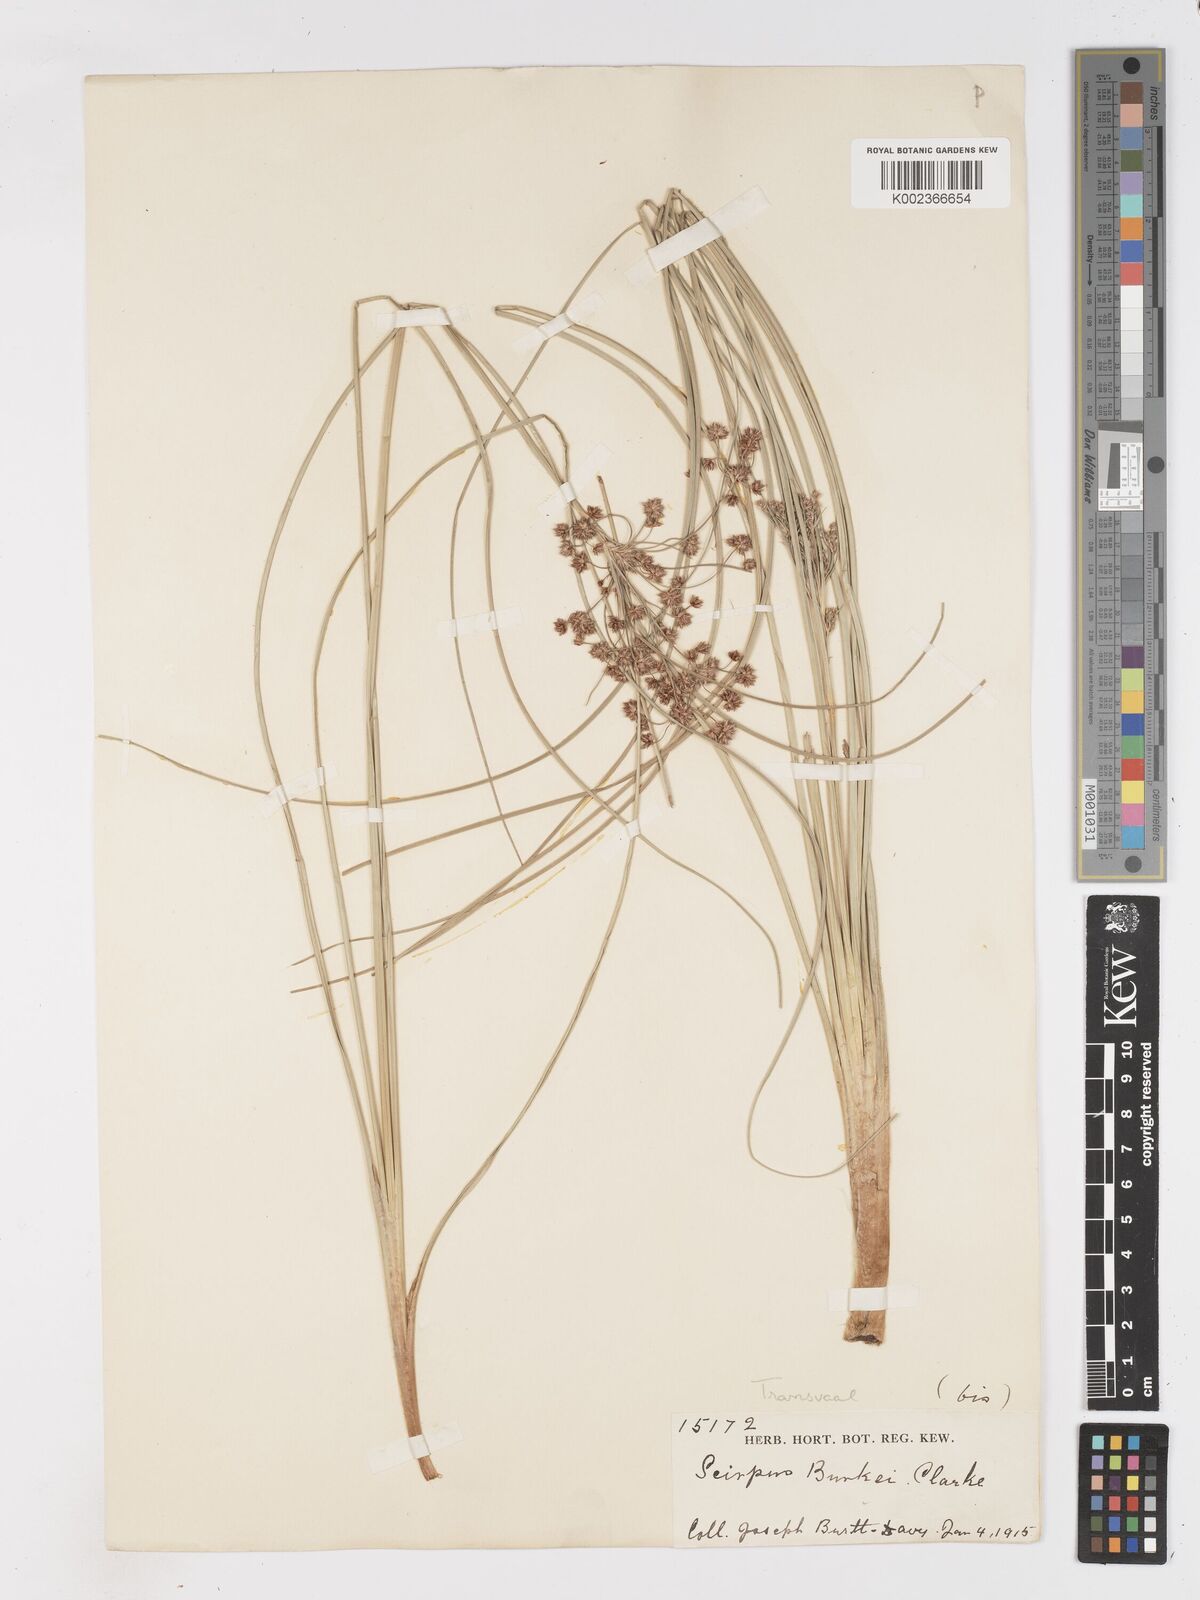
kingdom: Plantae
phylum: Tracheophyta
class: Liliopsida
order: Poales
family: Cyperaceae
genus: Scirpoides
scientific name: Scirpoides burkei
